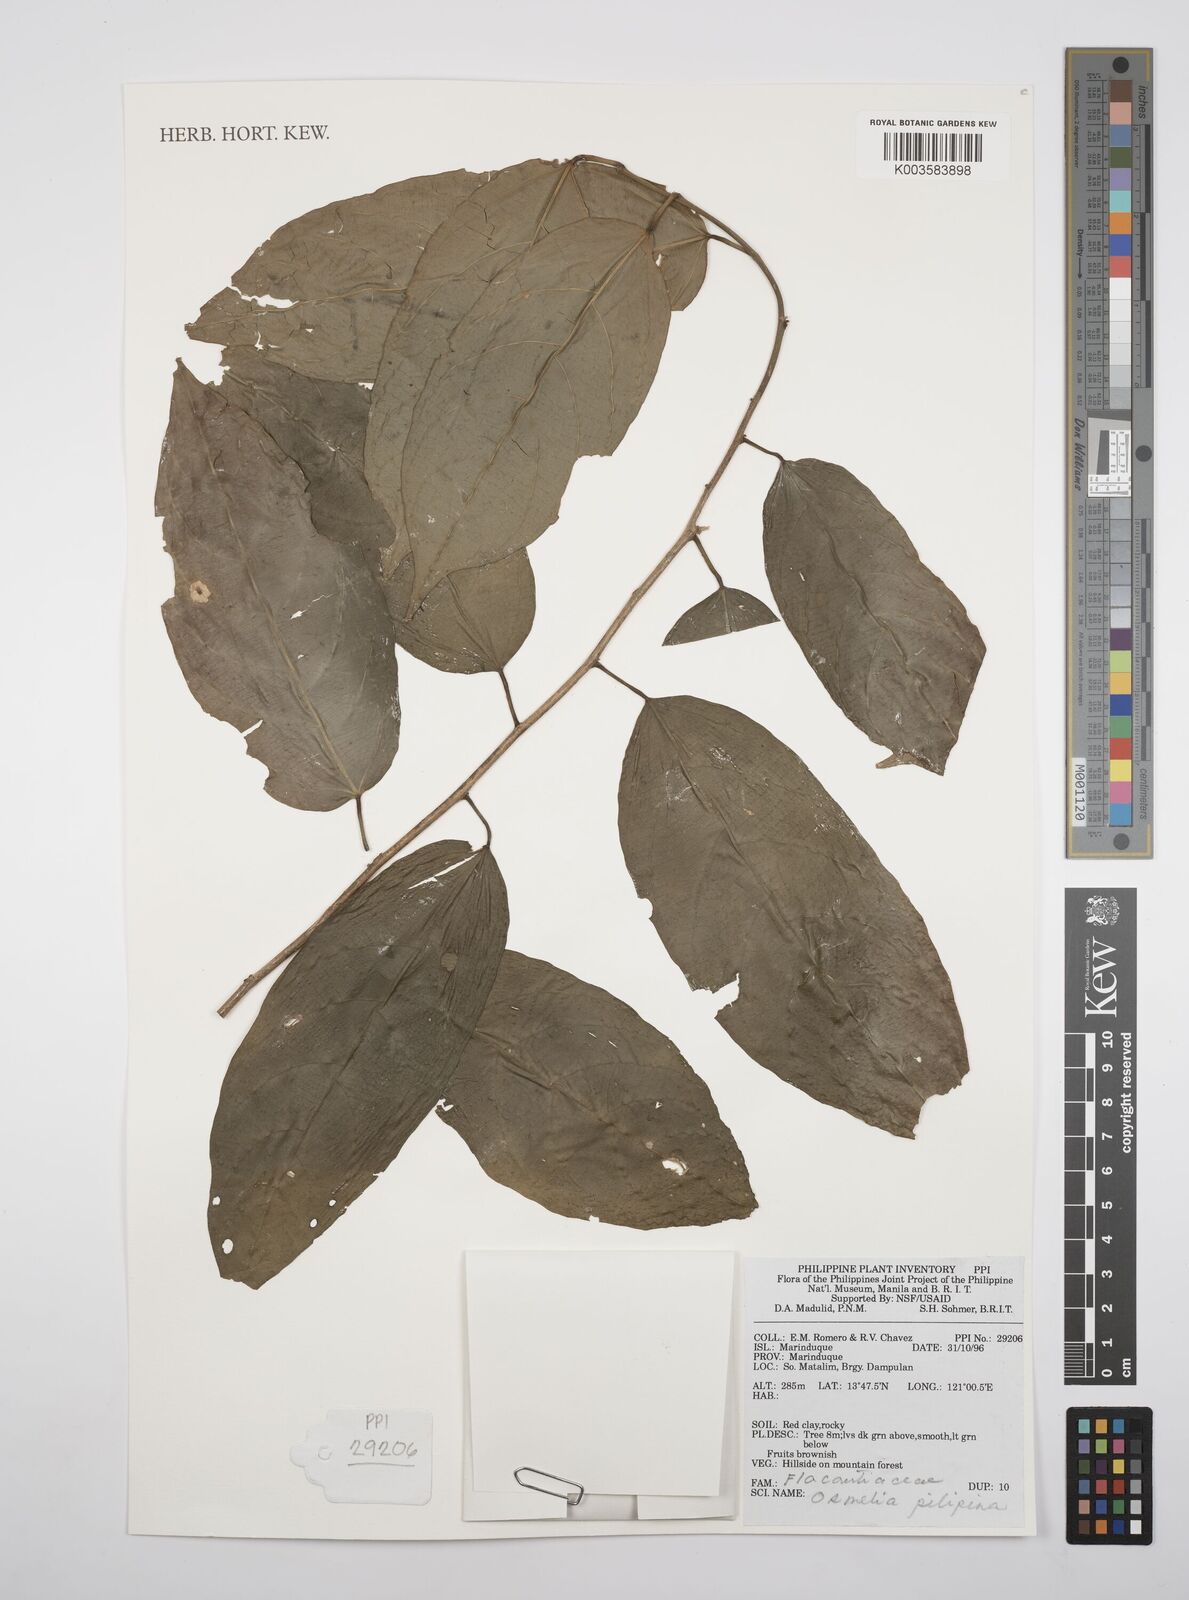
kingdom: Plantae
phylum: Tracheophyta
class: Magnoliopsida
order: Malpighiales
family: Salicaceae
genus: Osmelia
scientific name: Osmelia philippina
